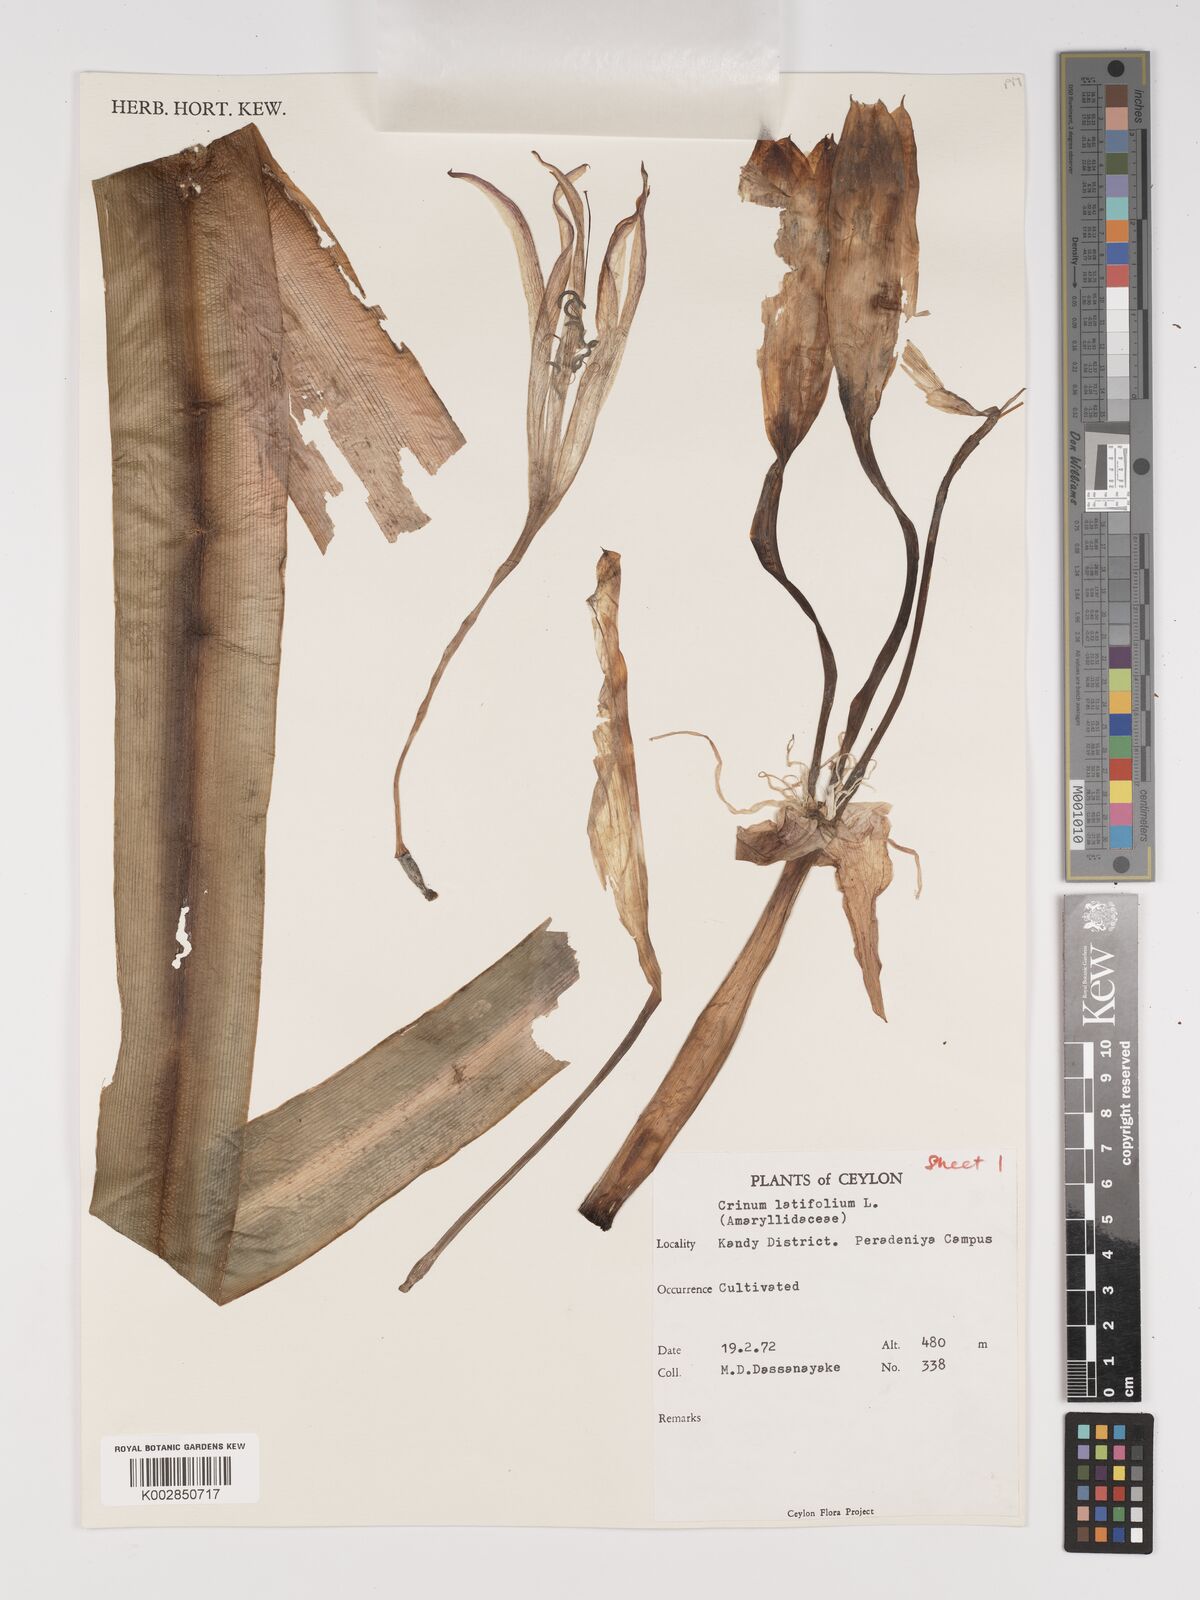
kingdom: Plantae
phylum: Tracheophyta
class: Liliopsida
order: Asparagales
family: Amaryllidaceae
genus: Crinum
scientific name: Crinum latifolium
